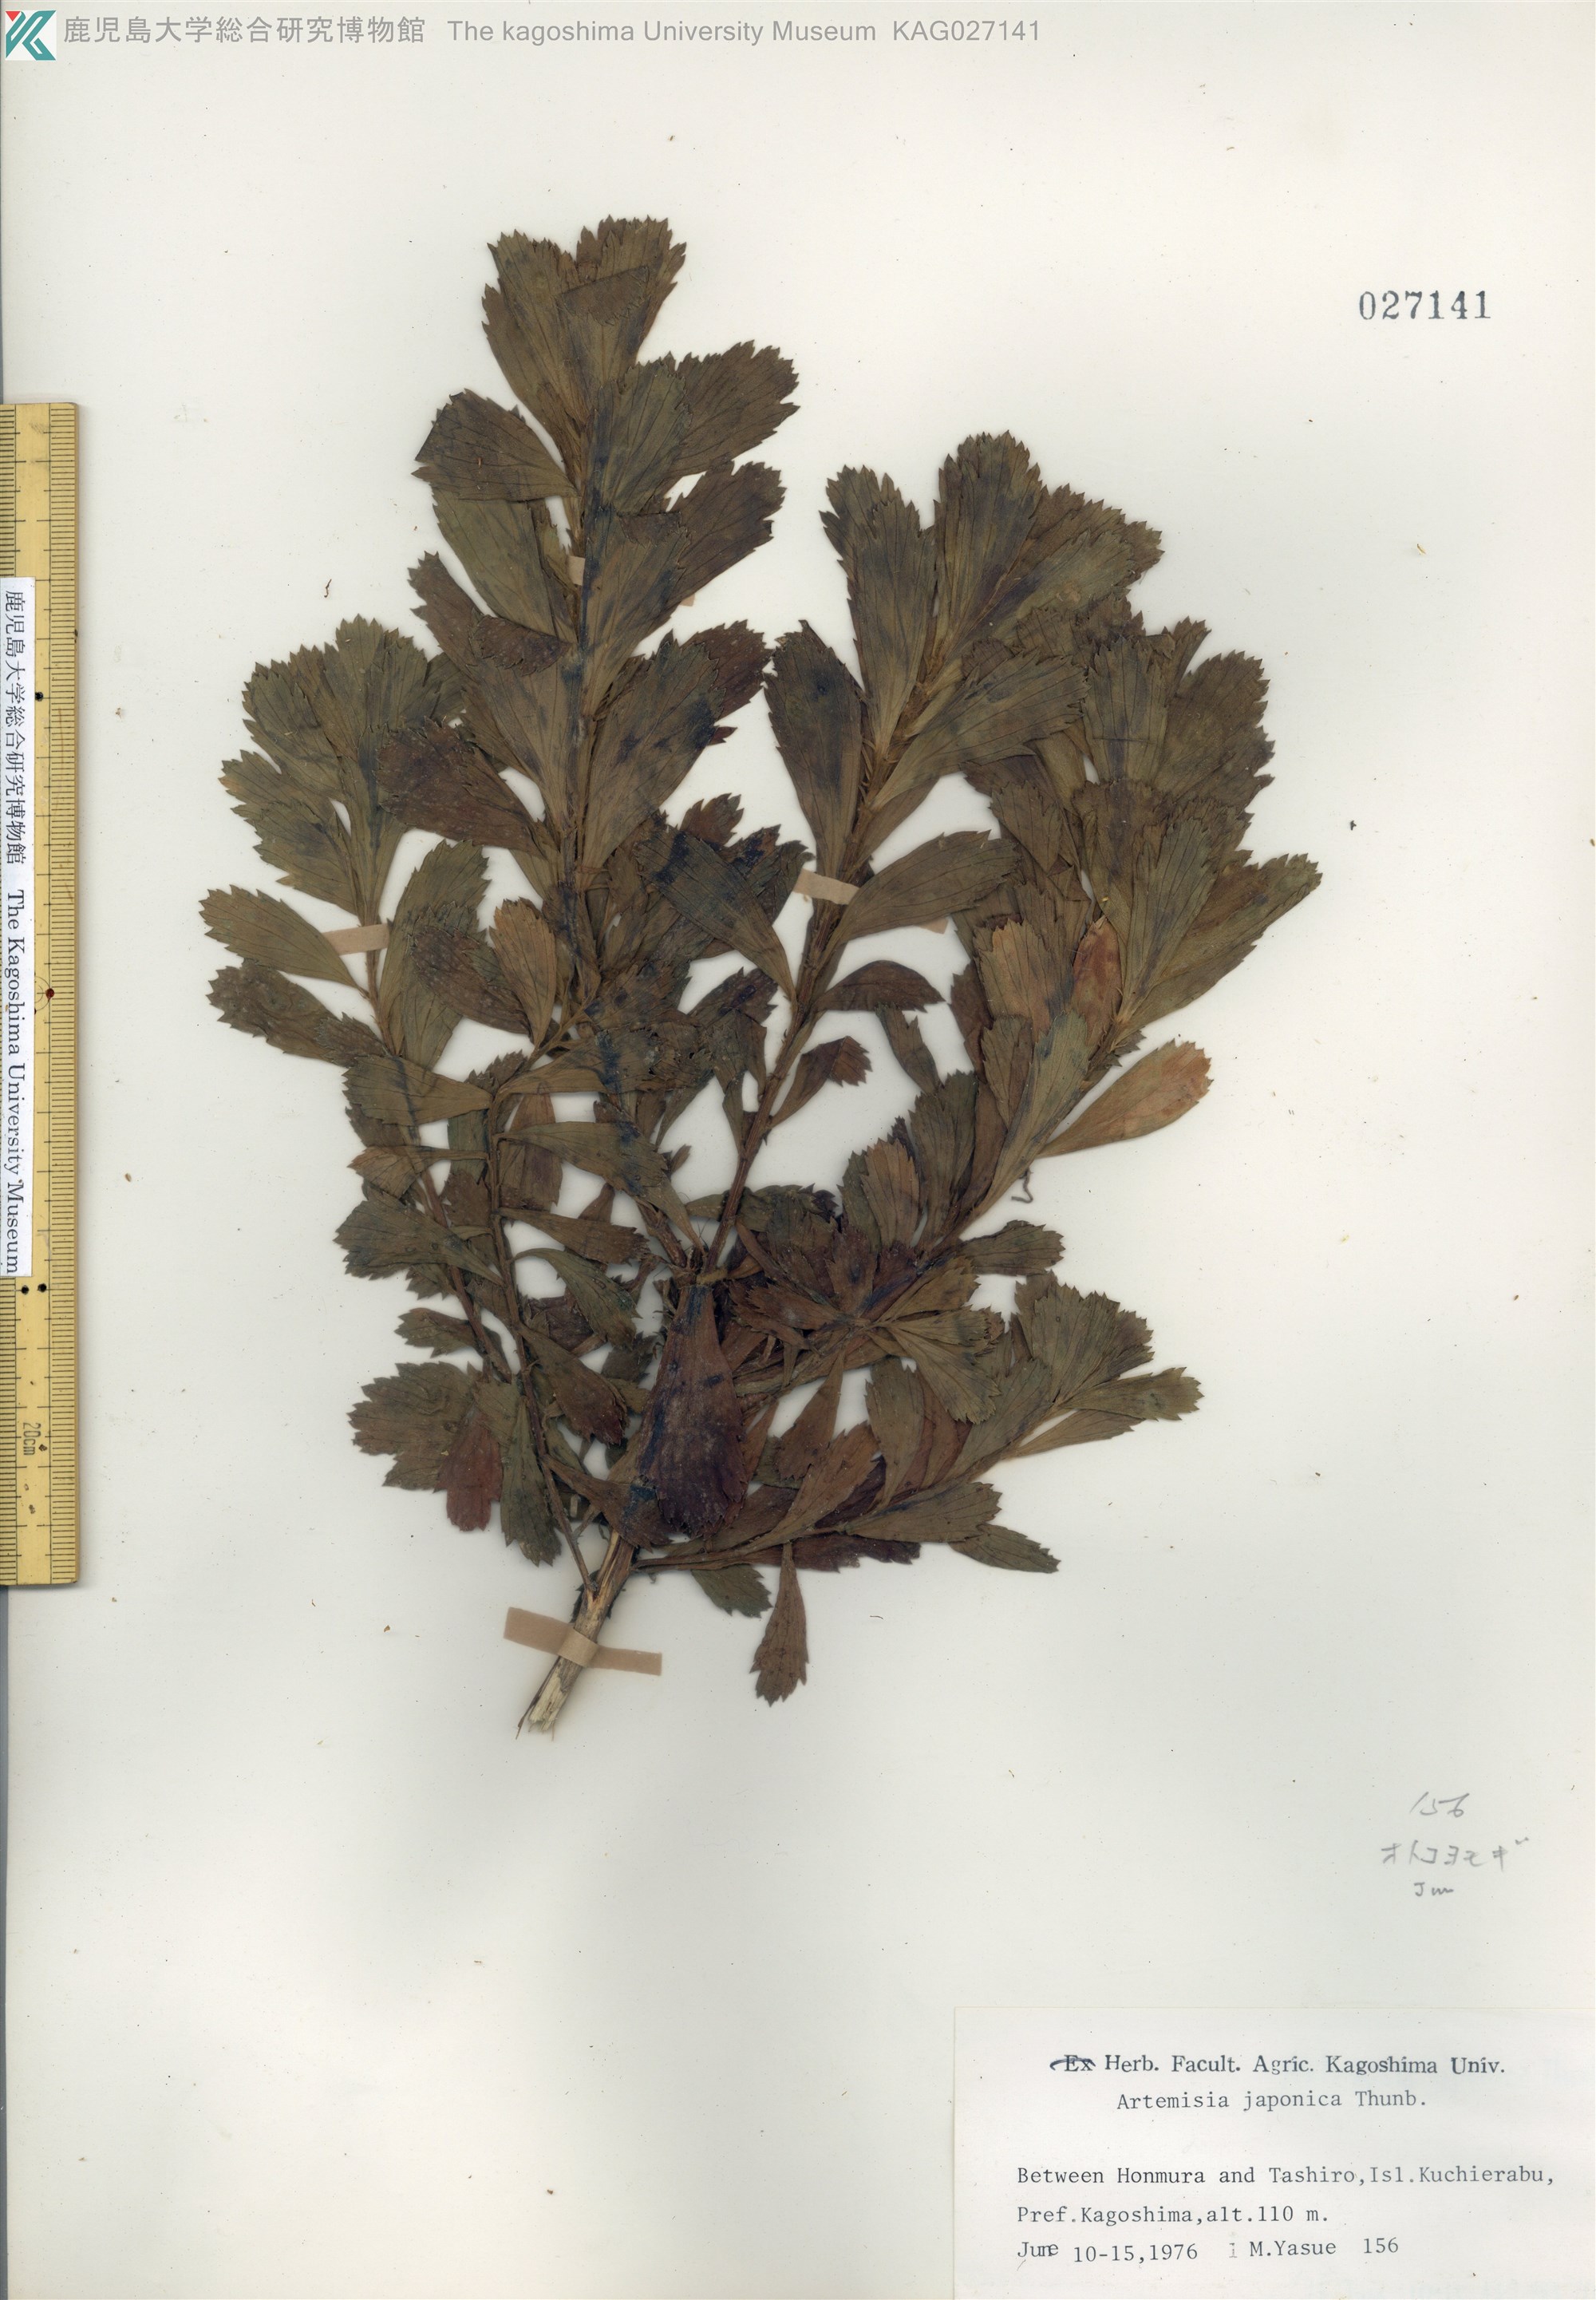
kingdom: Plantae
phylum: Tracheophyta
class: Magnoliopsida
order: Asterales
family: Asteraceae
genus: Artemisia
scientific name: Artemisia japonica
